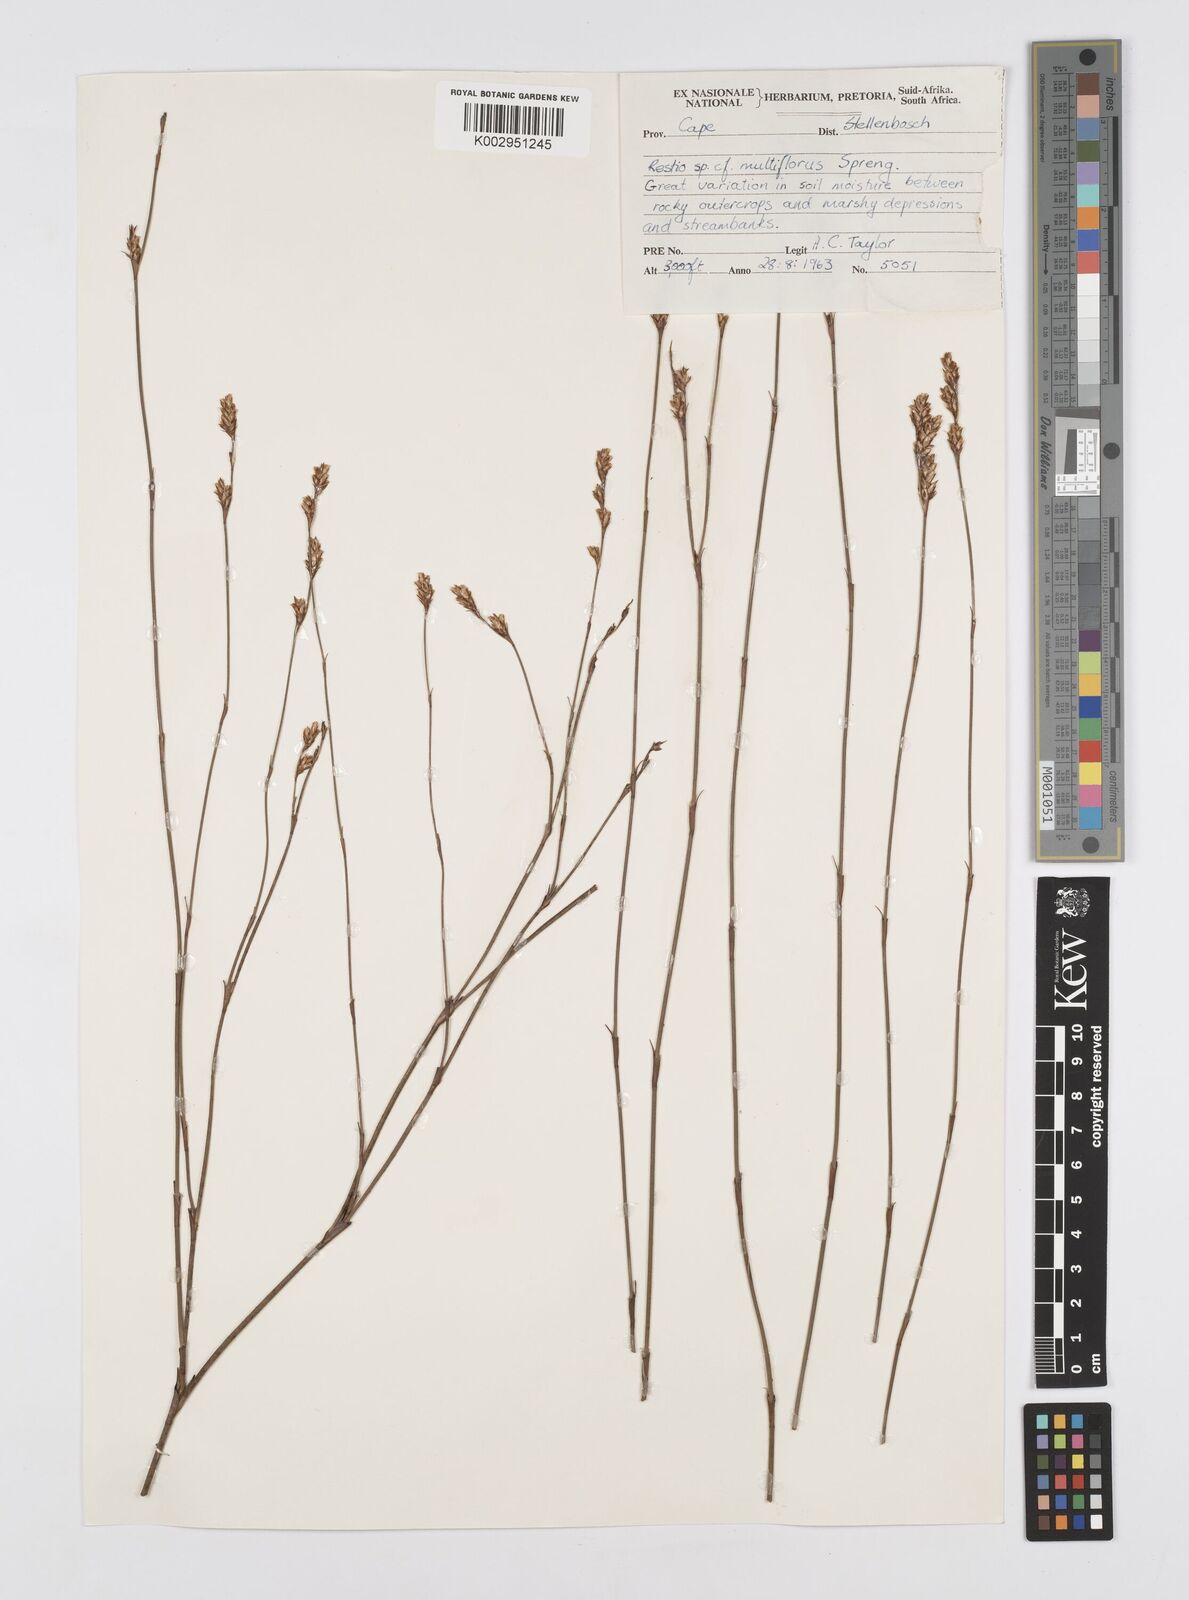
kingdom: Plantae
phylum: Tracheophyta
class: Liliopsida
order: Poales
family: Restionaceae
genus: Restio
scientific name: Restio multiflorus
